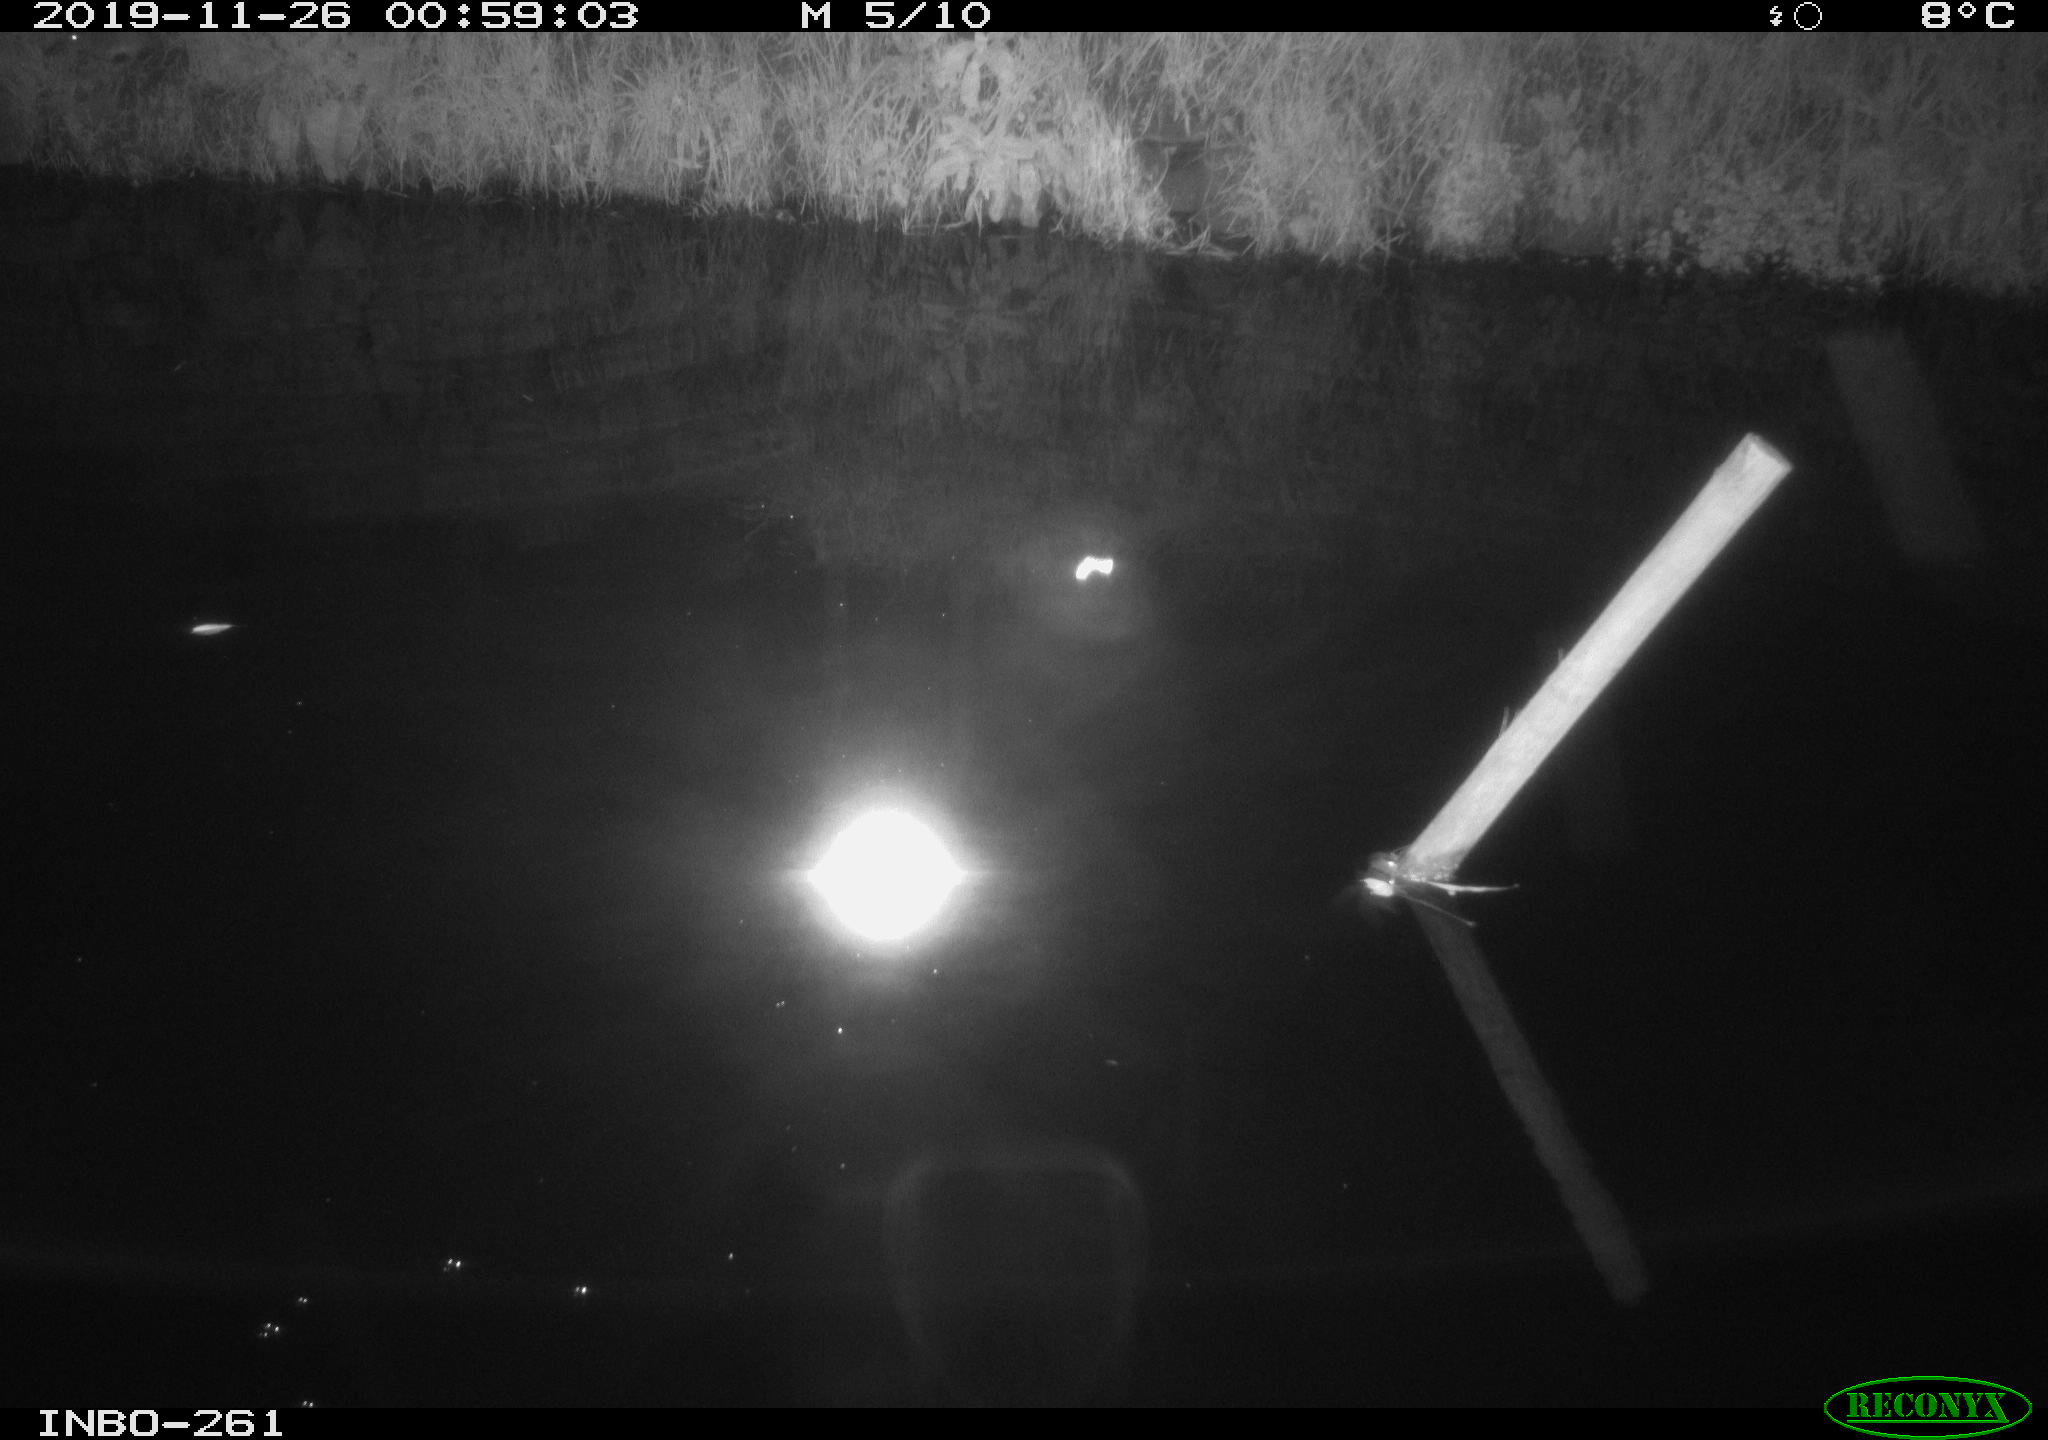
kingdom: Animalia
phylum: Chordata
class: Mammalia
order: Rodentia
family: Muridae
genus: Rattus
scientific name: Rattus norvegicus
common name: Brown rat
